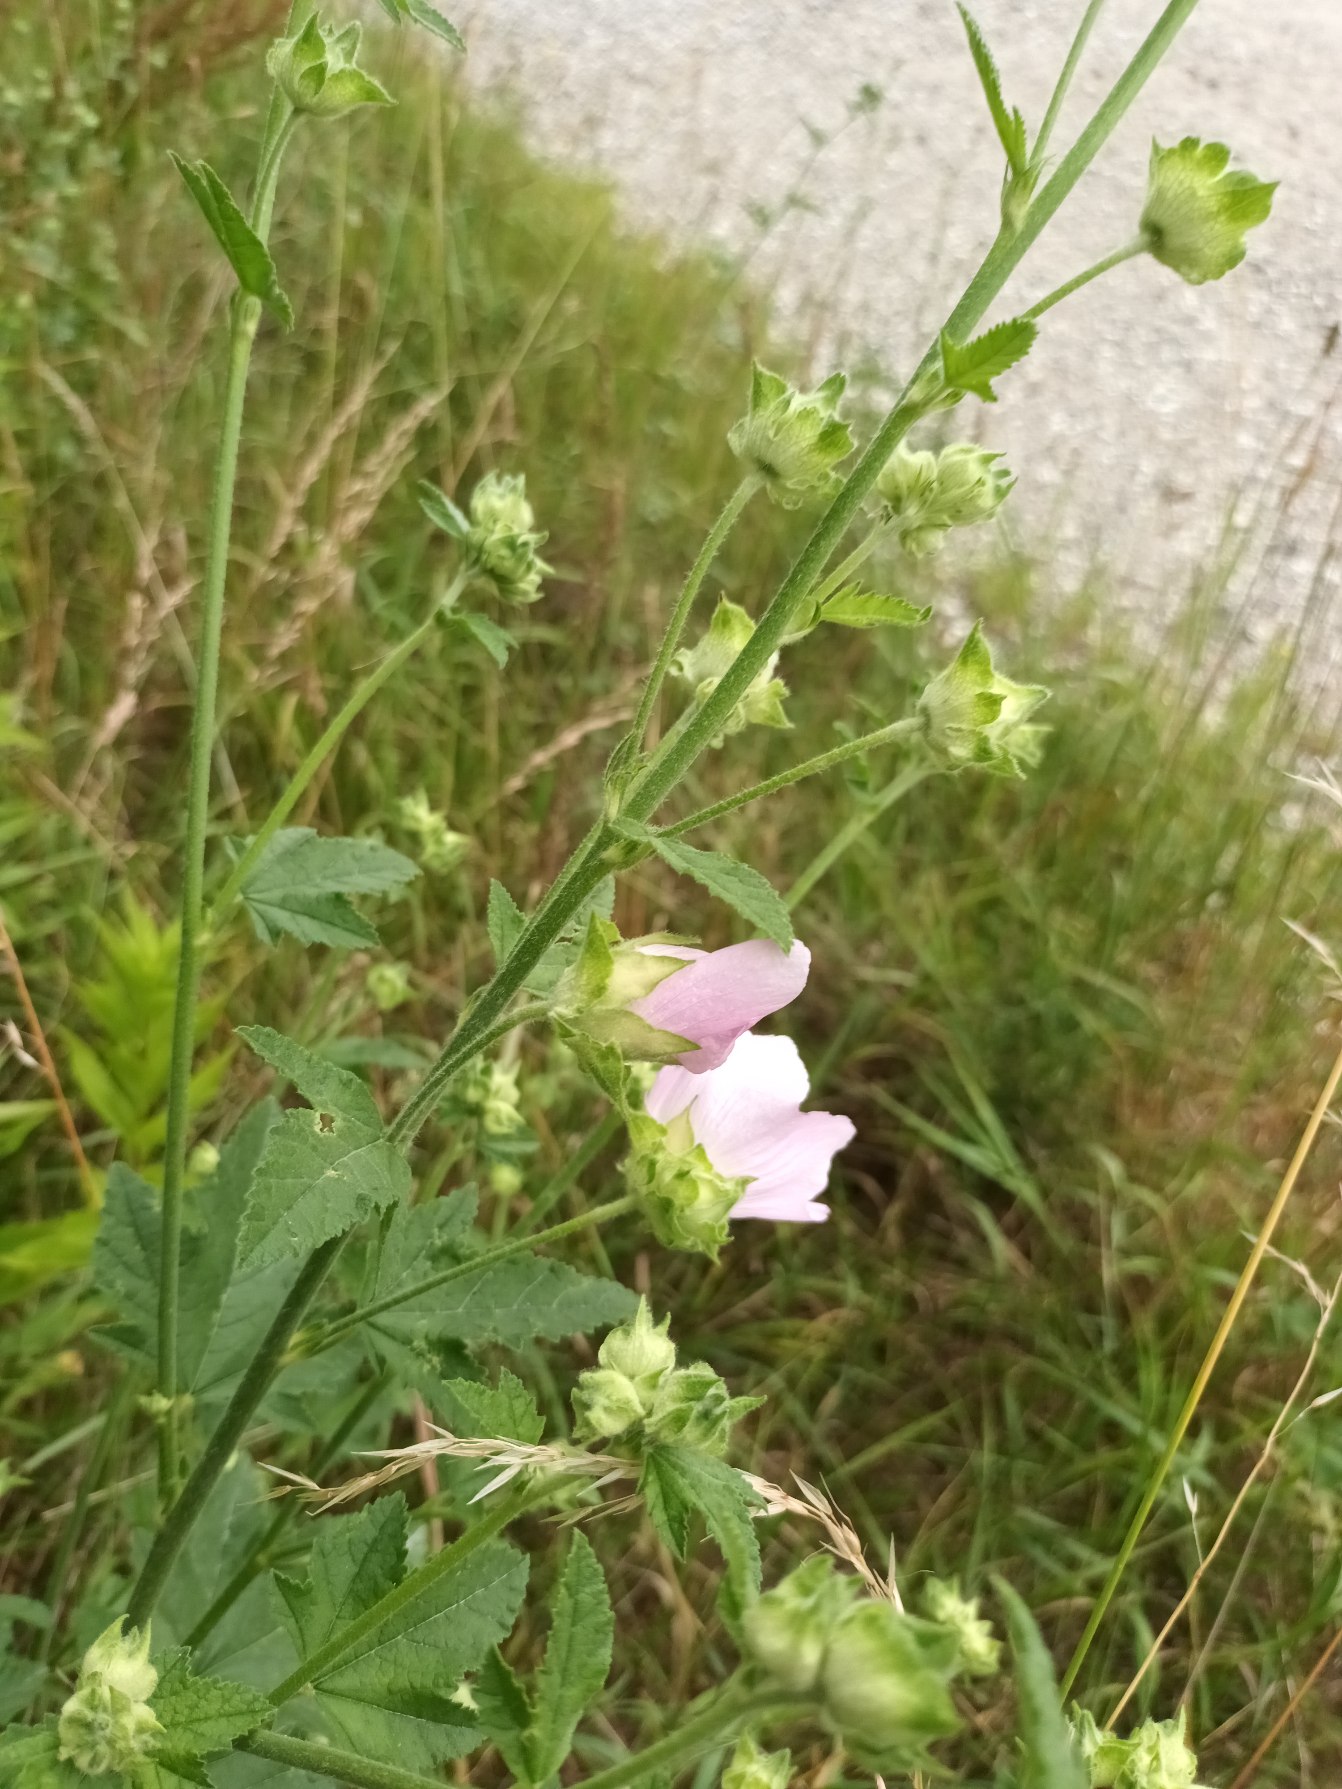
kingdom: Plantae
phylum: Tracheophyta
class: Magnoliopsida
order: Malvales
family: Malvaceae
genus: Malva
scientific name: Malva thuringiaca
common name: Tysk poppelrose
